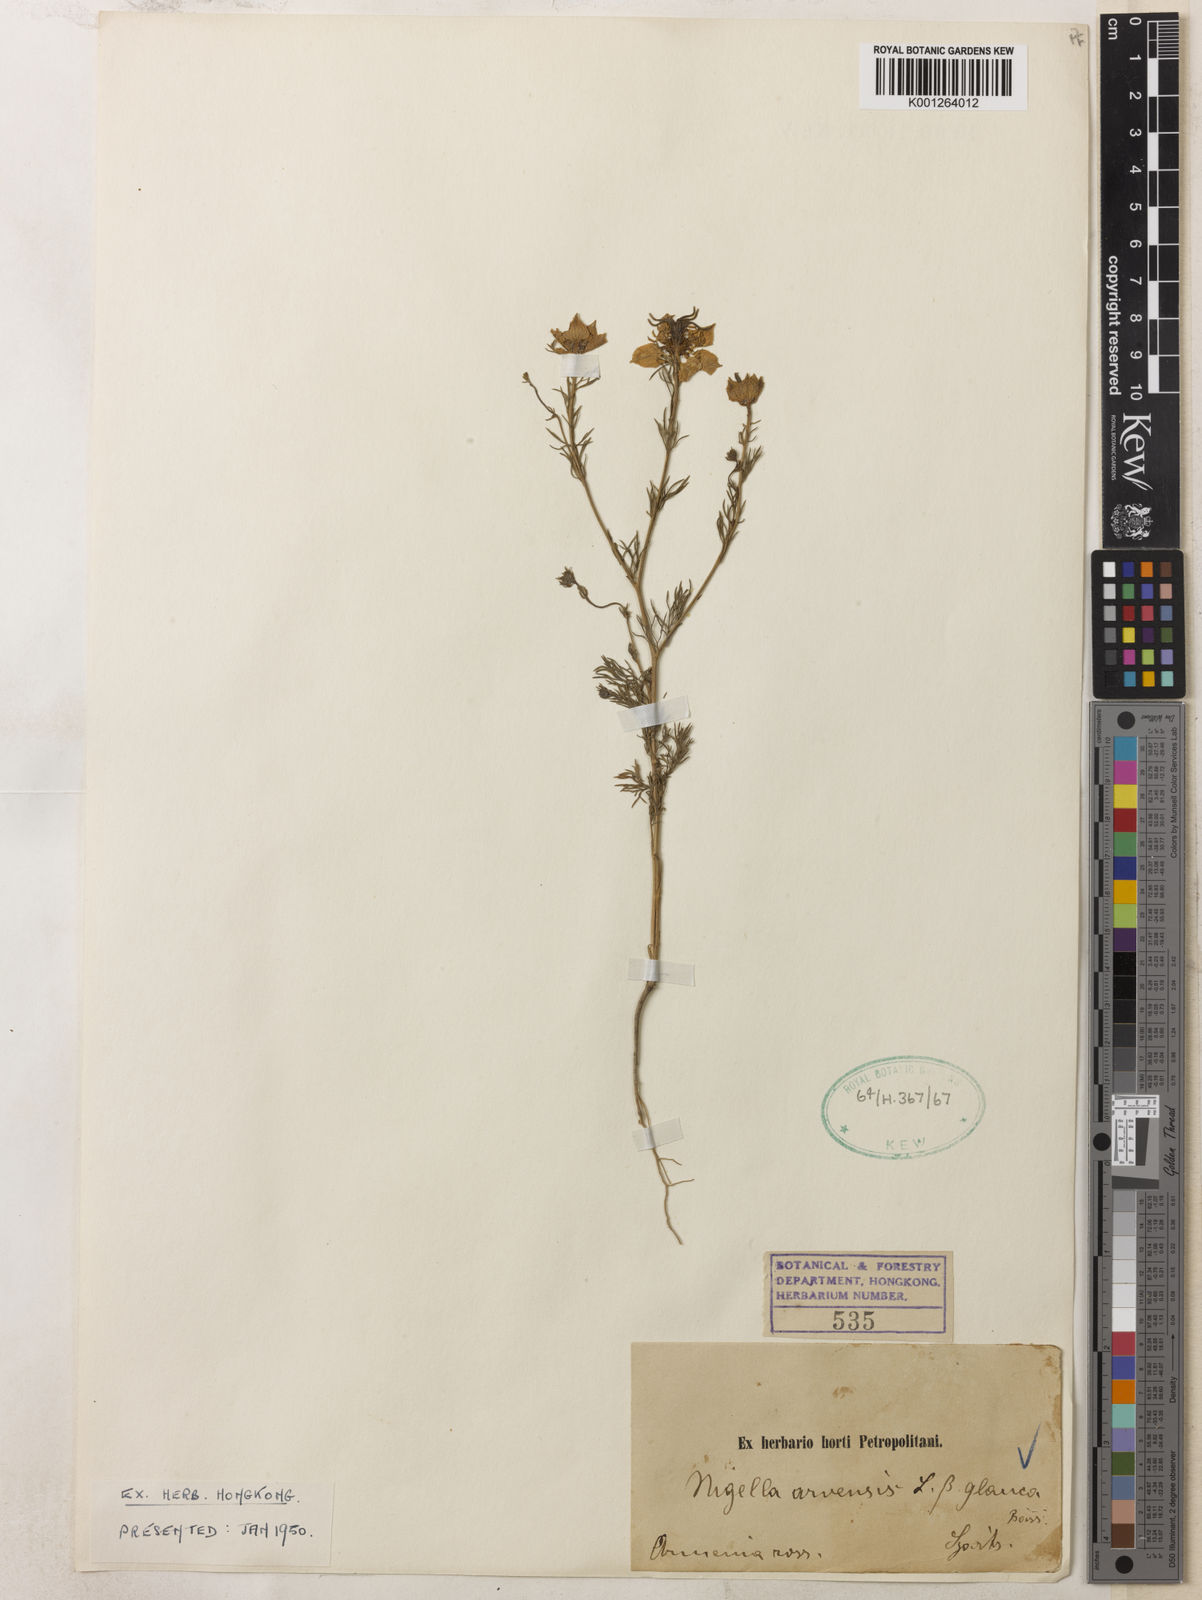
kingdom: Plantae
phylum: Tracheophyta
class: Magnoliopsida
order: Ranunculales
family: Ranunculaceae
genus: Nigella
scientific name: Nigella arvensis
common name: Wild fennel-flower
